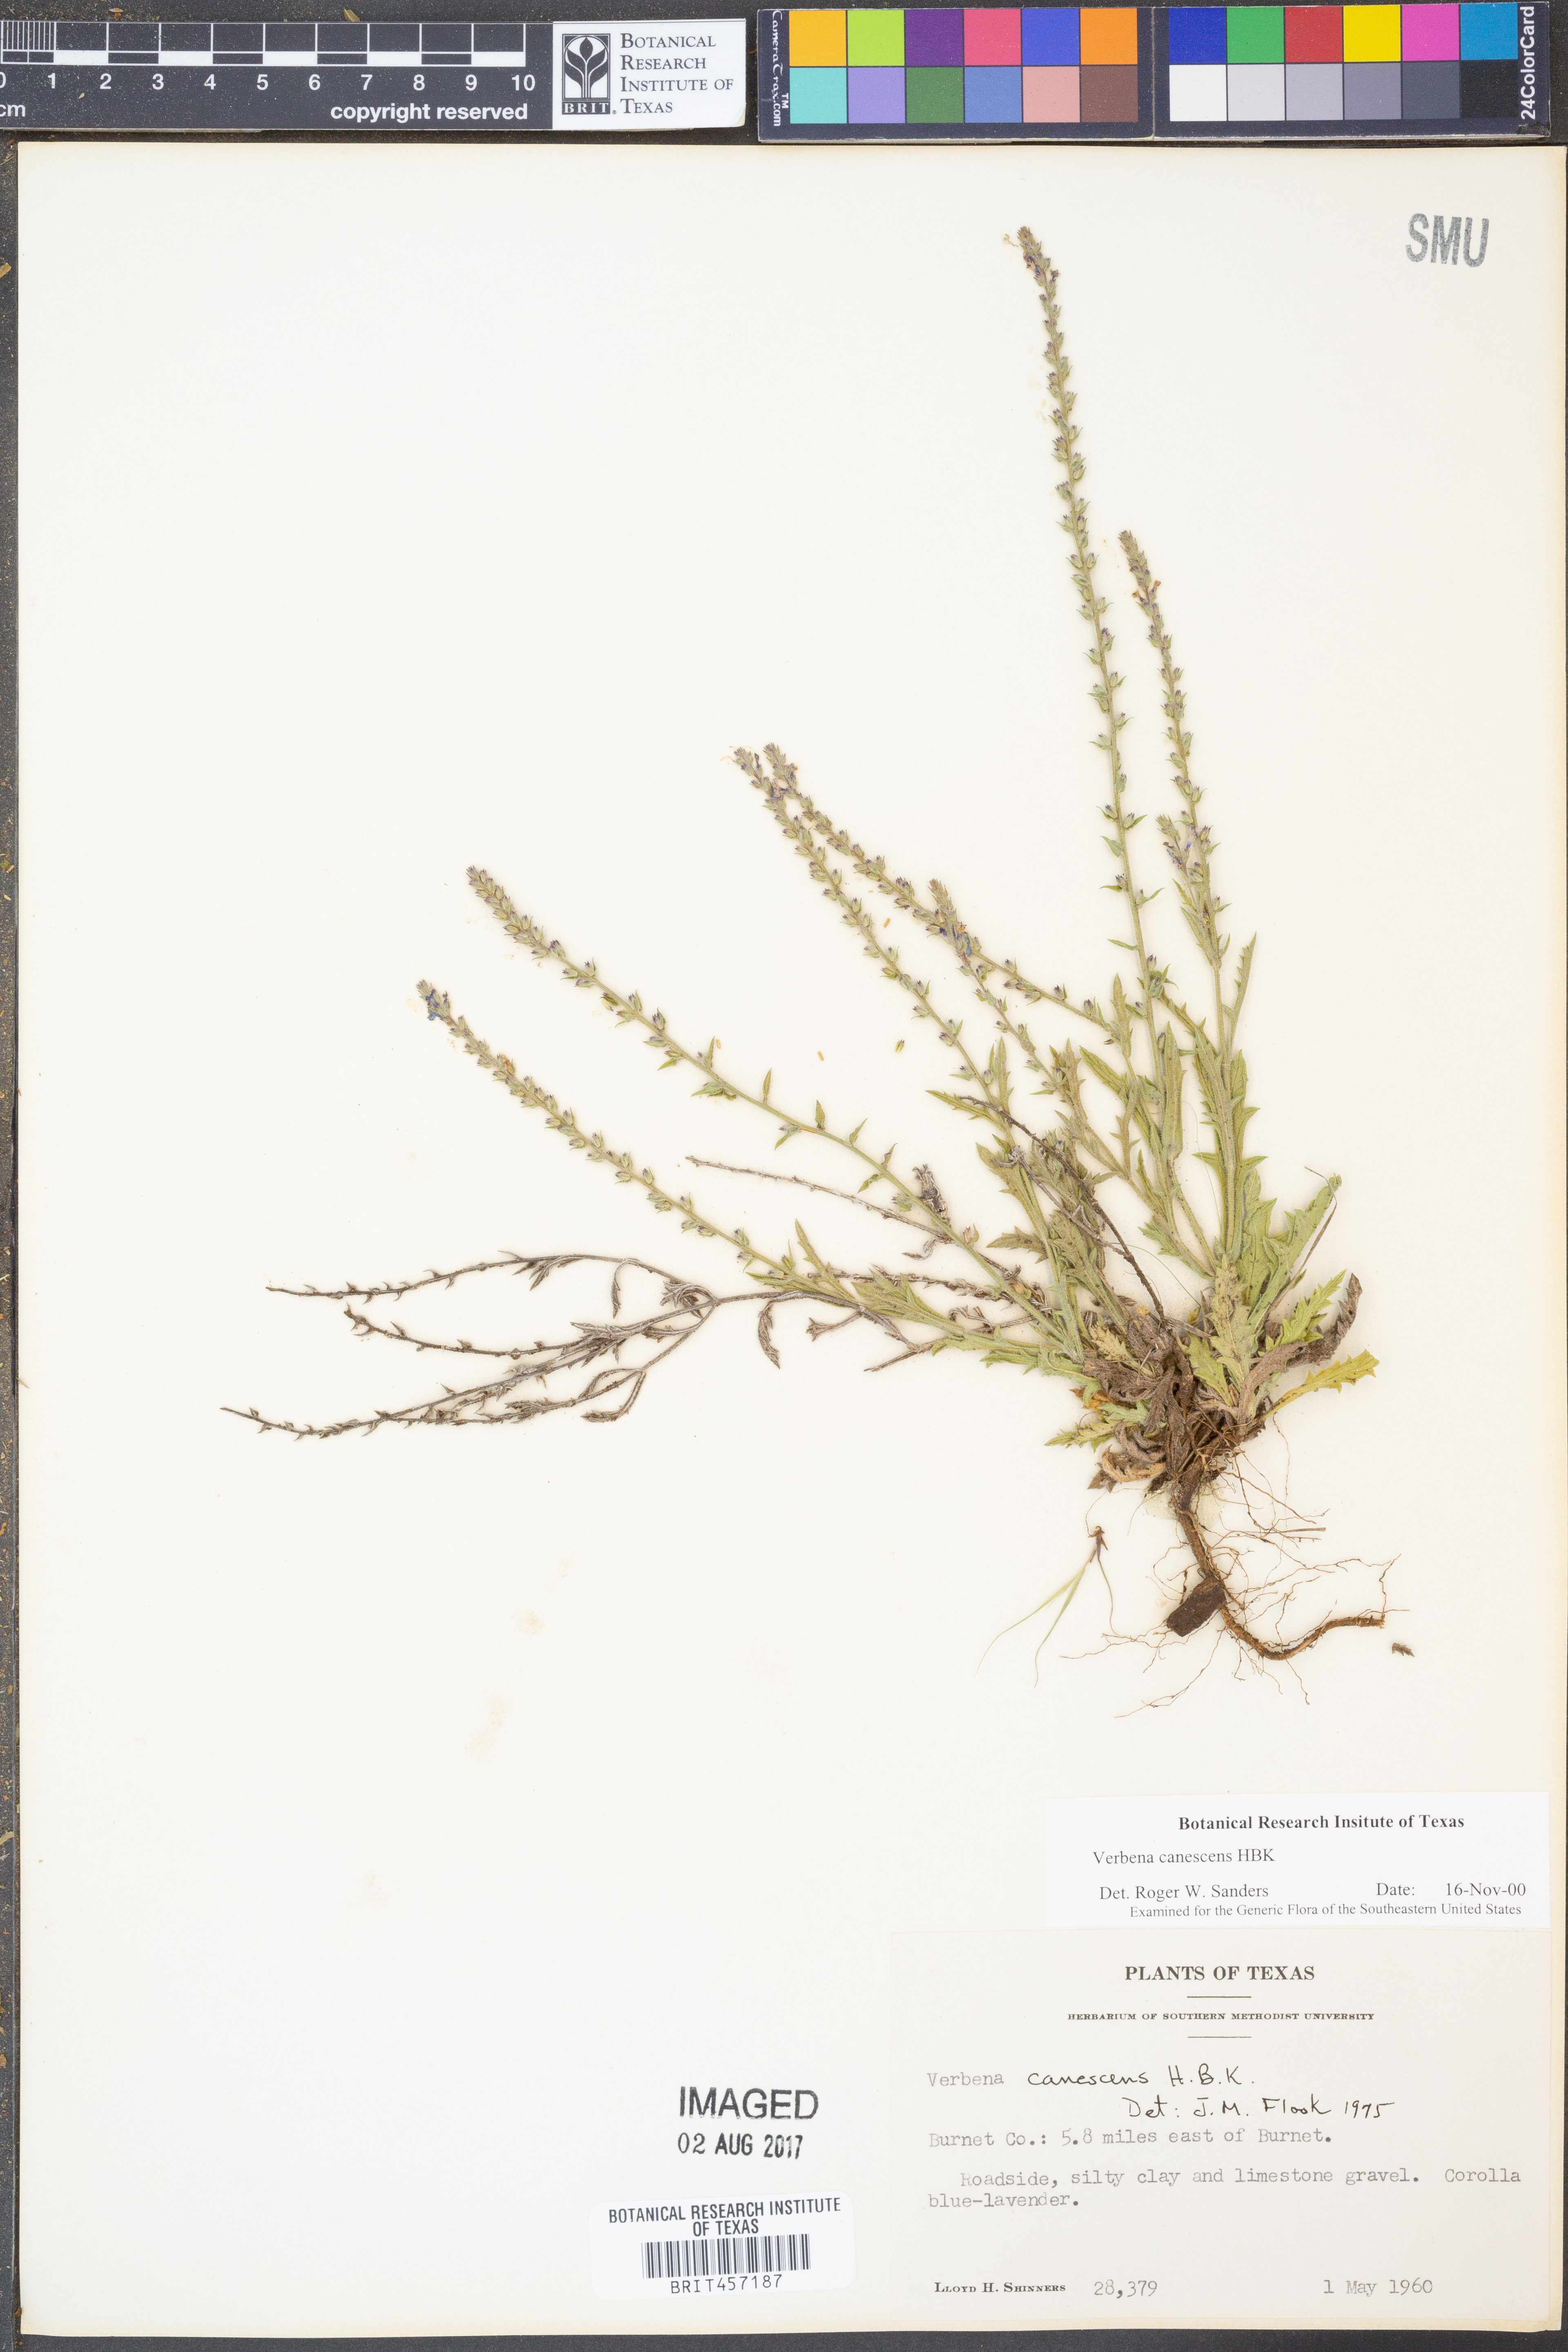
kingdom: Plantae
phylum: Tracheophyta
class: Magnoliopsida
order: Lamiales
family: Verbenaceae
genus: Verbena
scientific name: Verbena canescens
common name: Gray vervain
